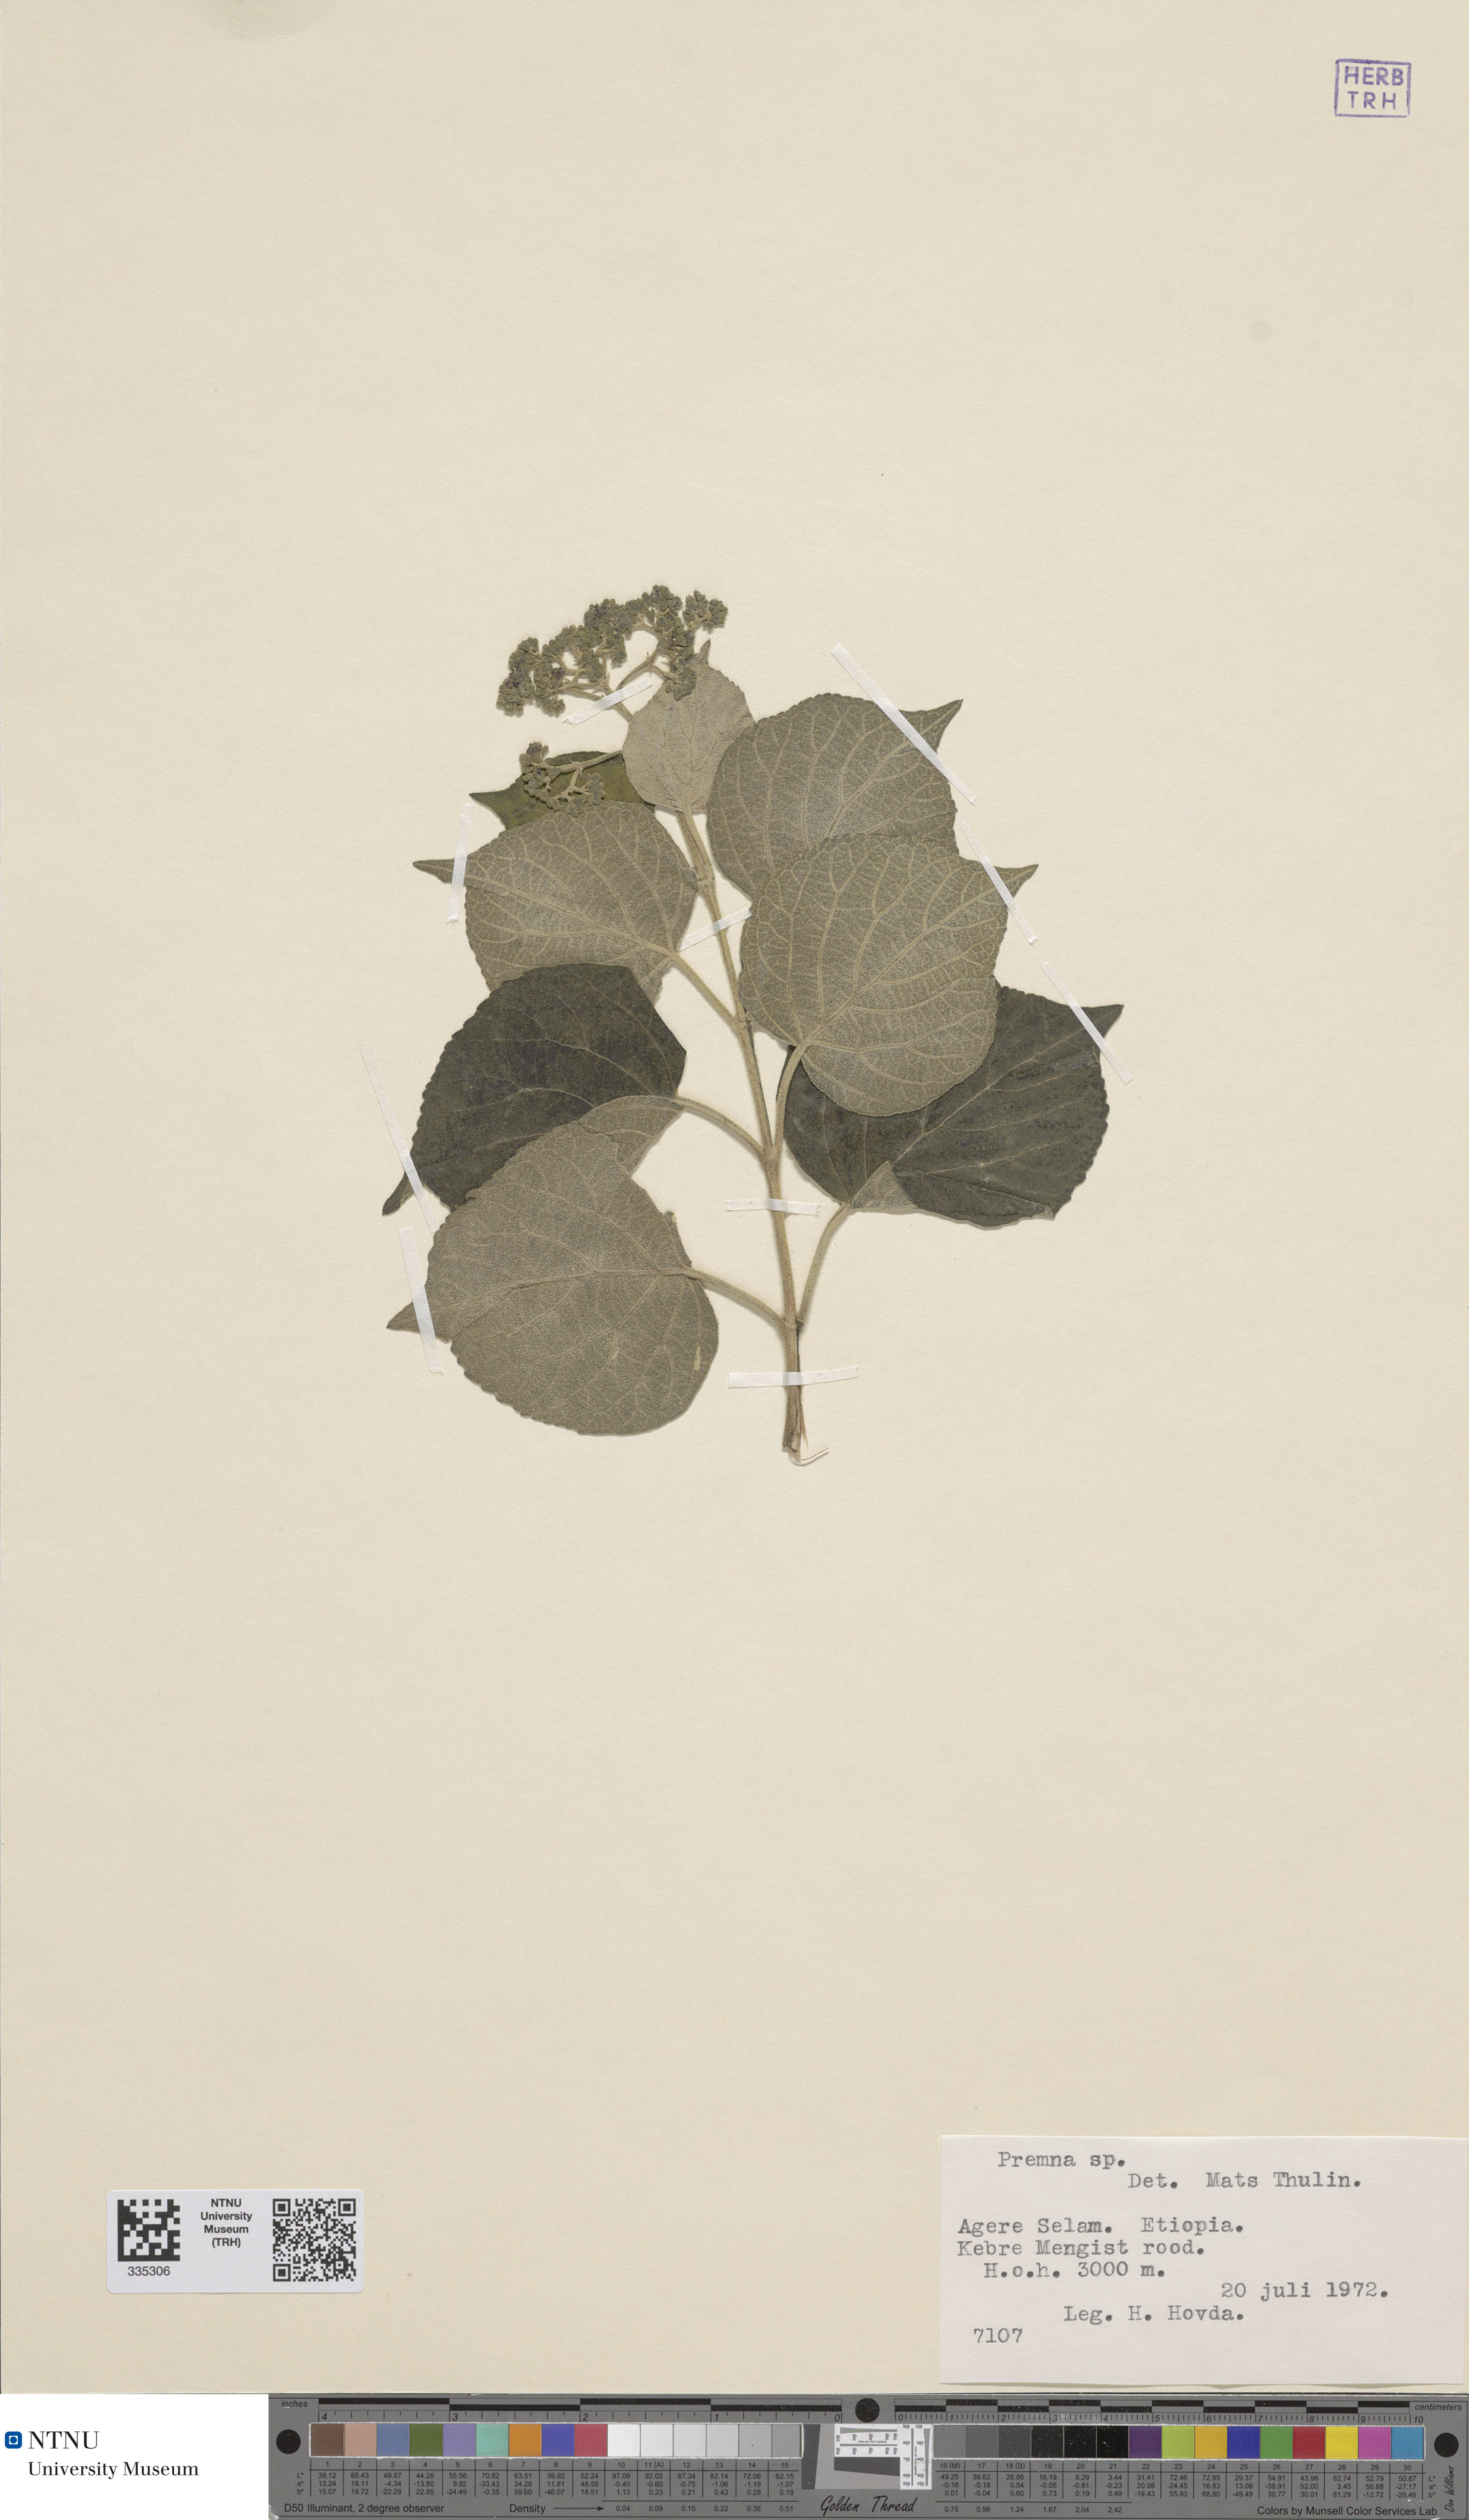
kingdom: Plantae
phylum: Tracheophyta
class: Magnoliopsida
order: Lamiales
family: Lamiaceae
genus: Premna
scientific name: Premna
